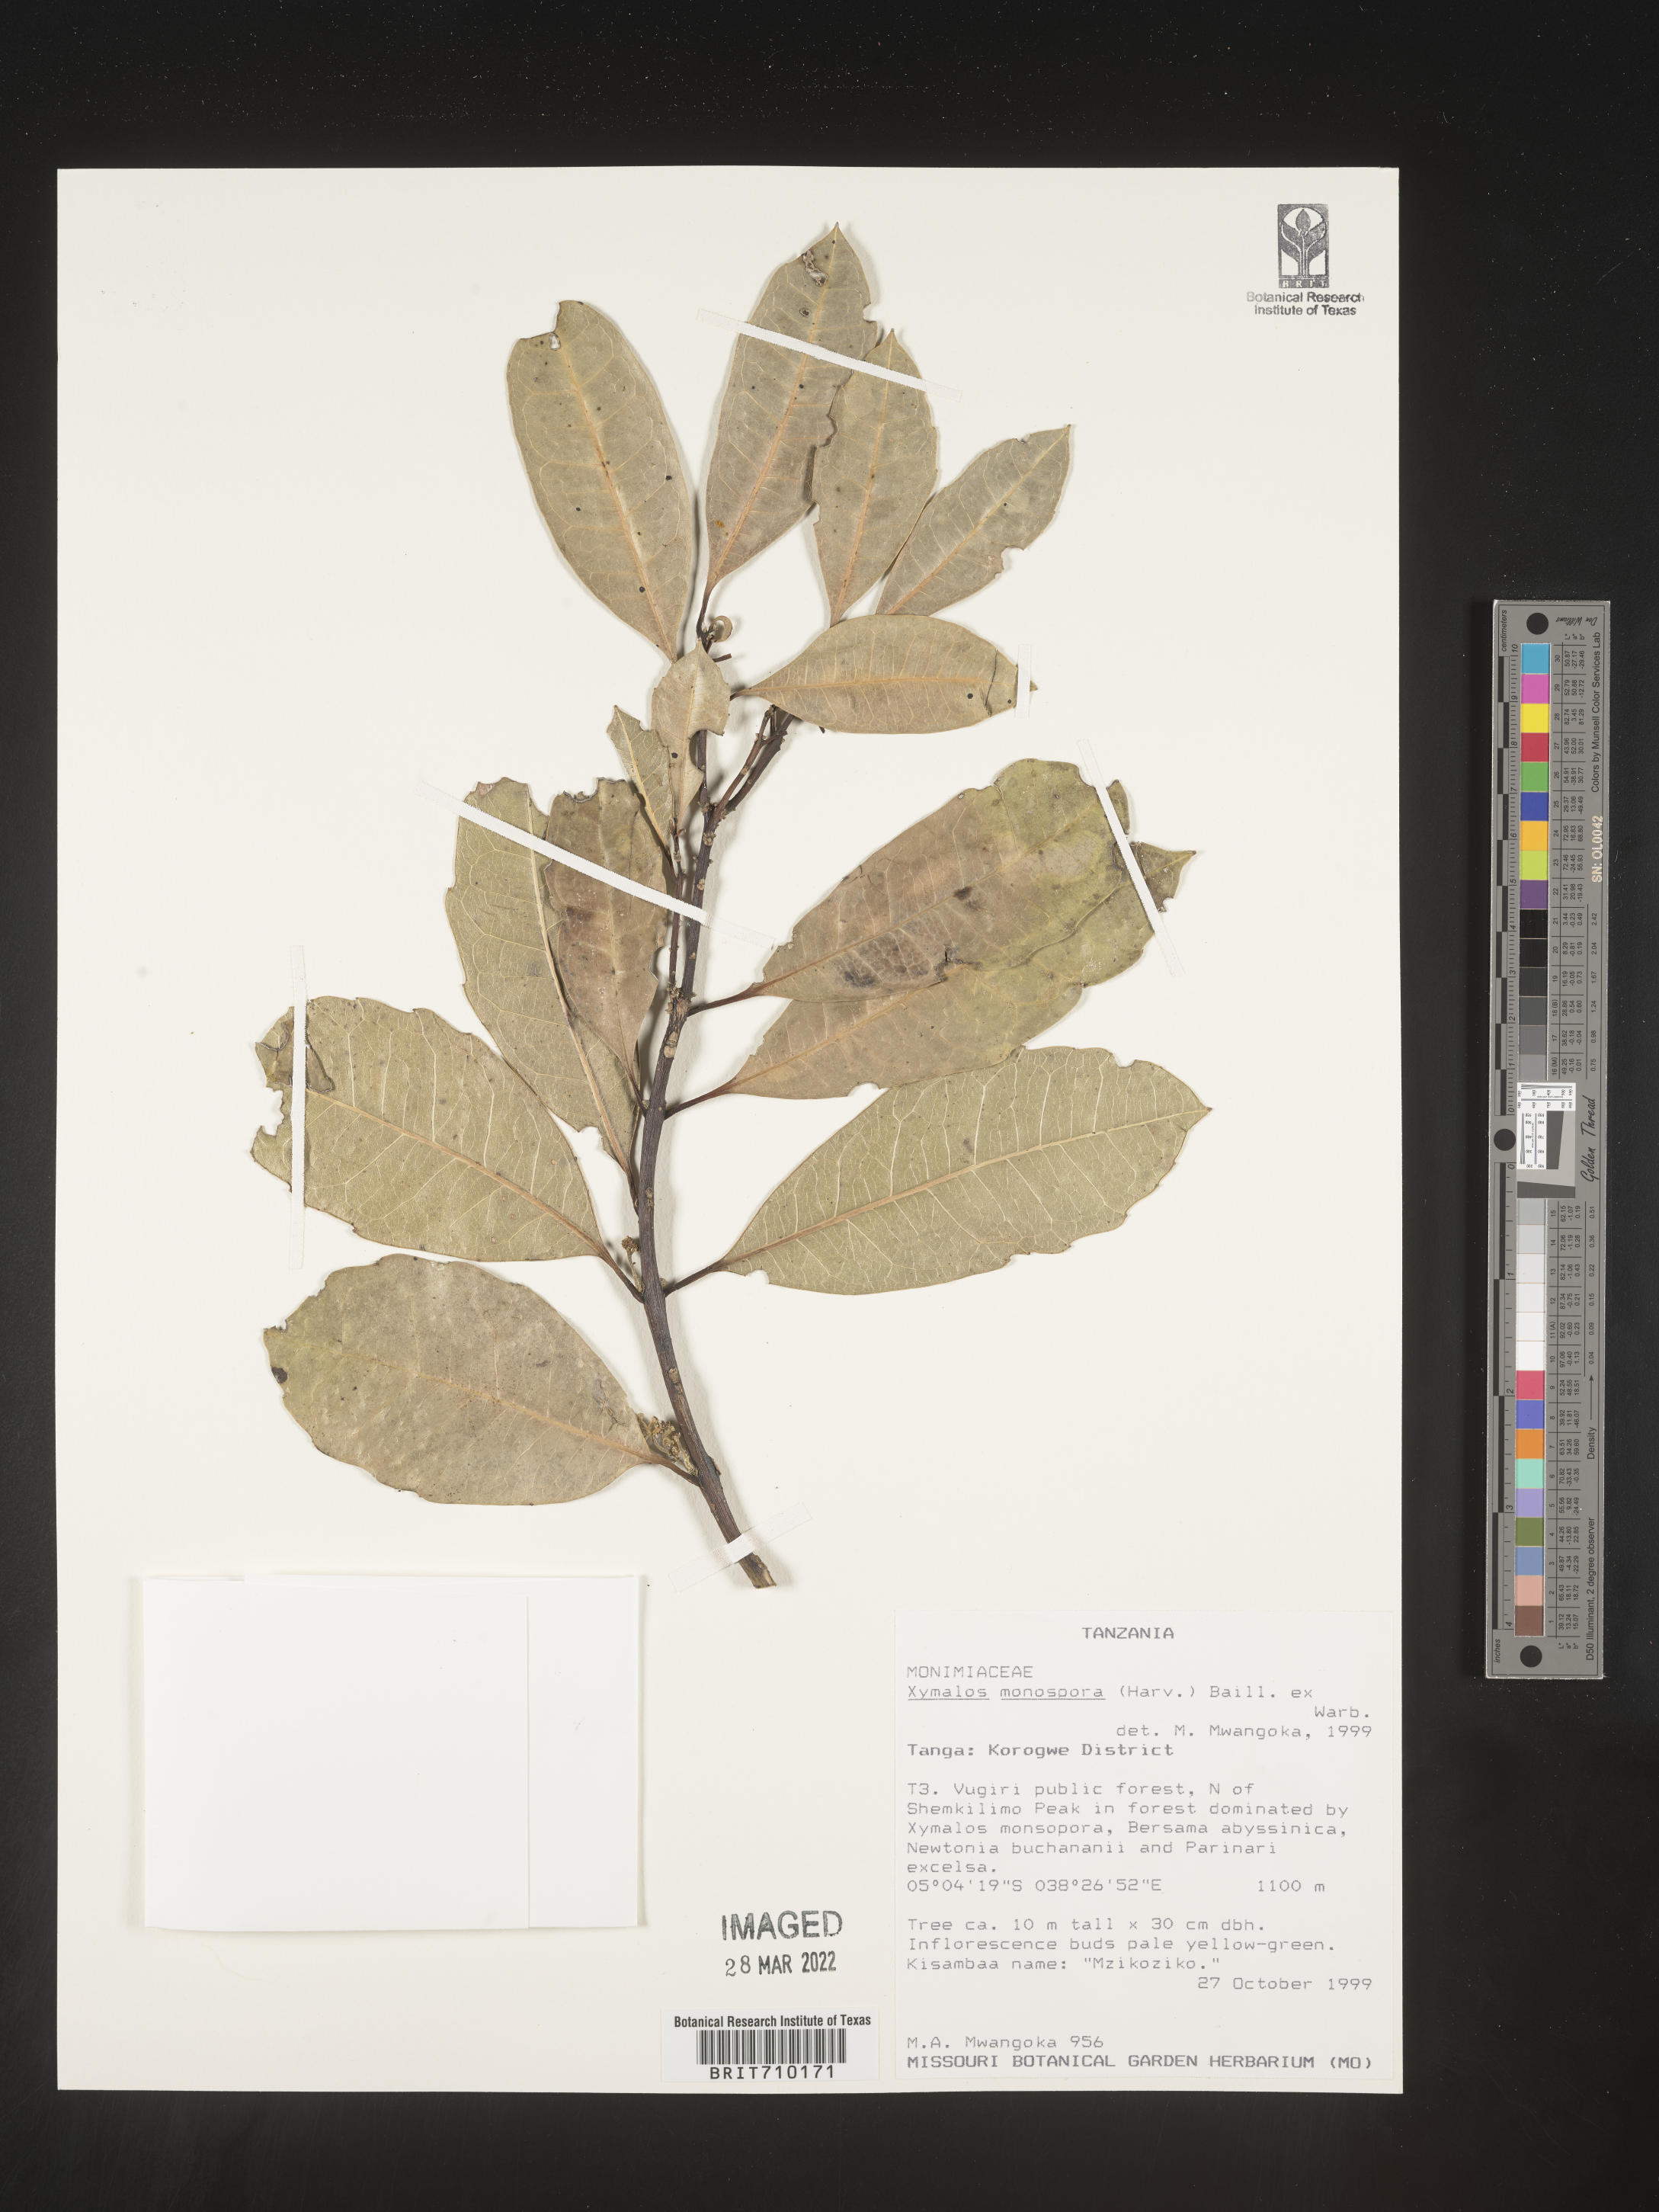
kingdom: Plantae
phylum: Tracheophyta
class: Magnoliopsida
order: Laurales
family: Monimiaceae
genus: Xymalos
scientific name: Xymalos
